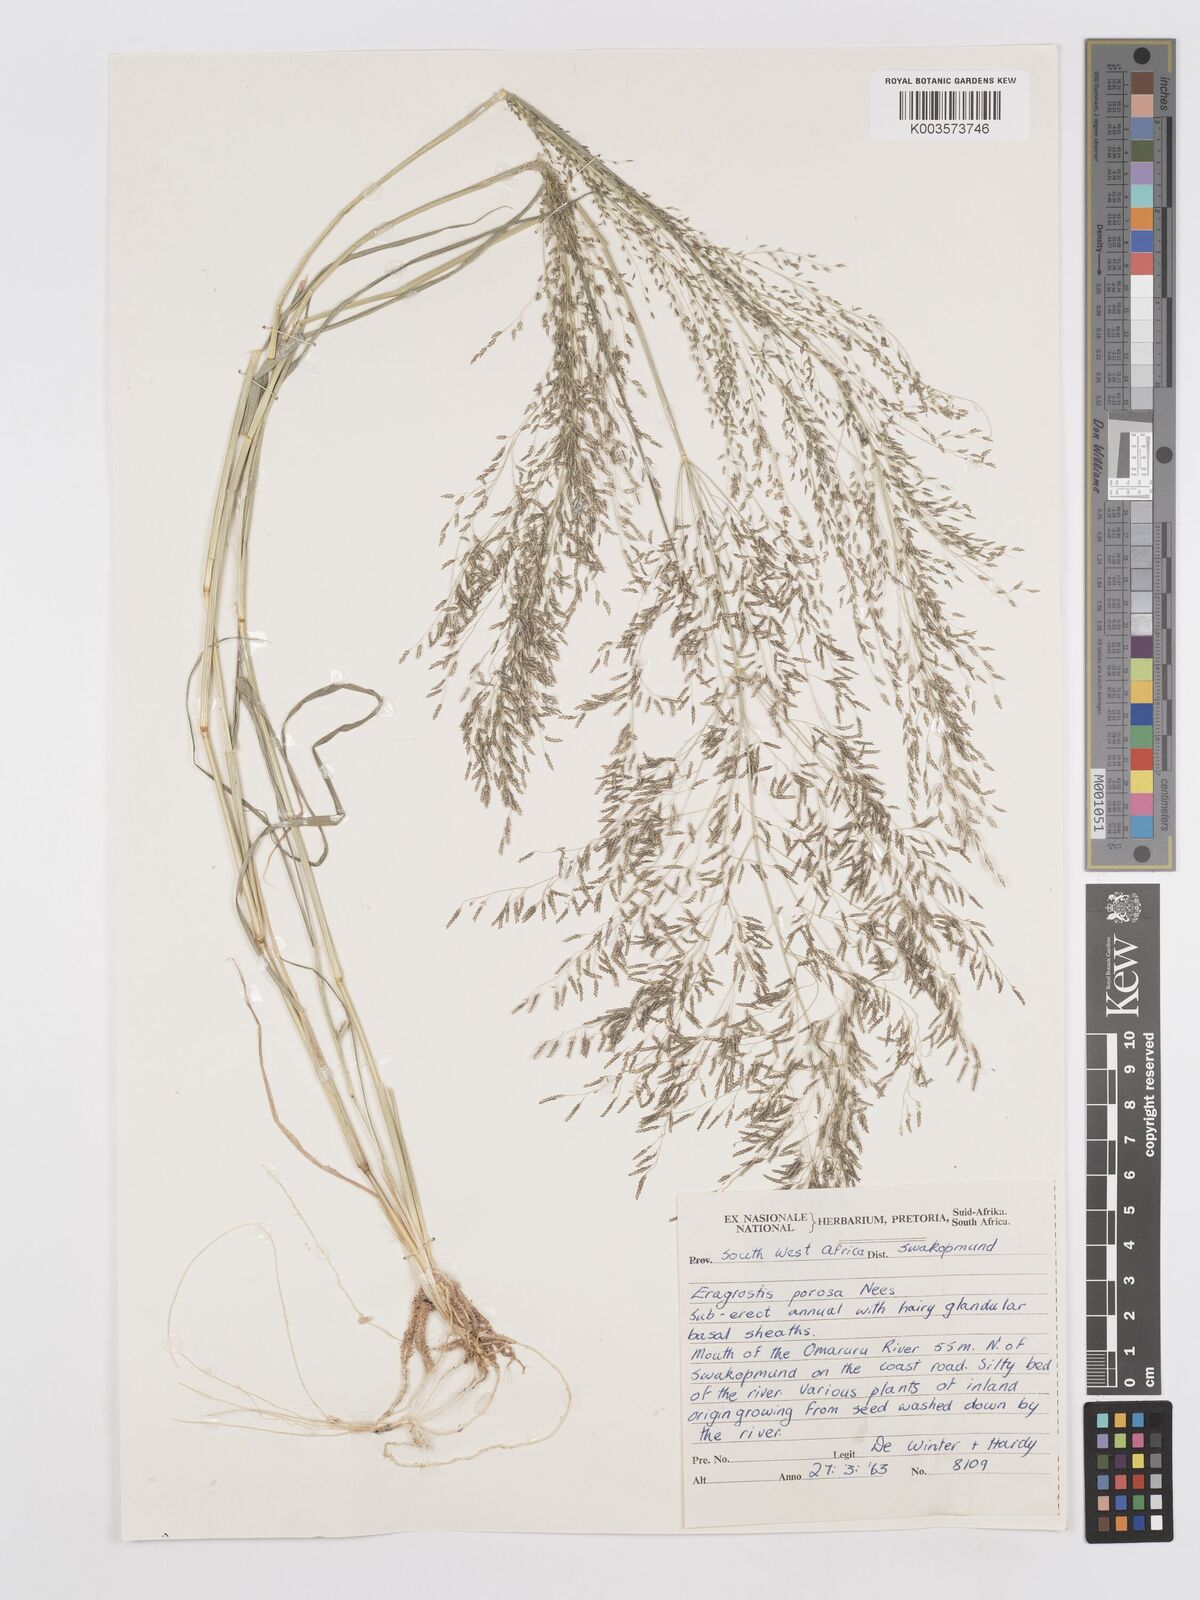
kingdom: Plantae
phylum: Tracheophyta
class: Liliopsida
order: Poales
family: Poaceae
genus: Eragrostis
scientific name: Eragrostis porosa
